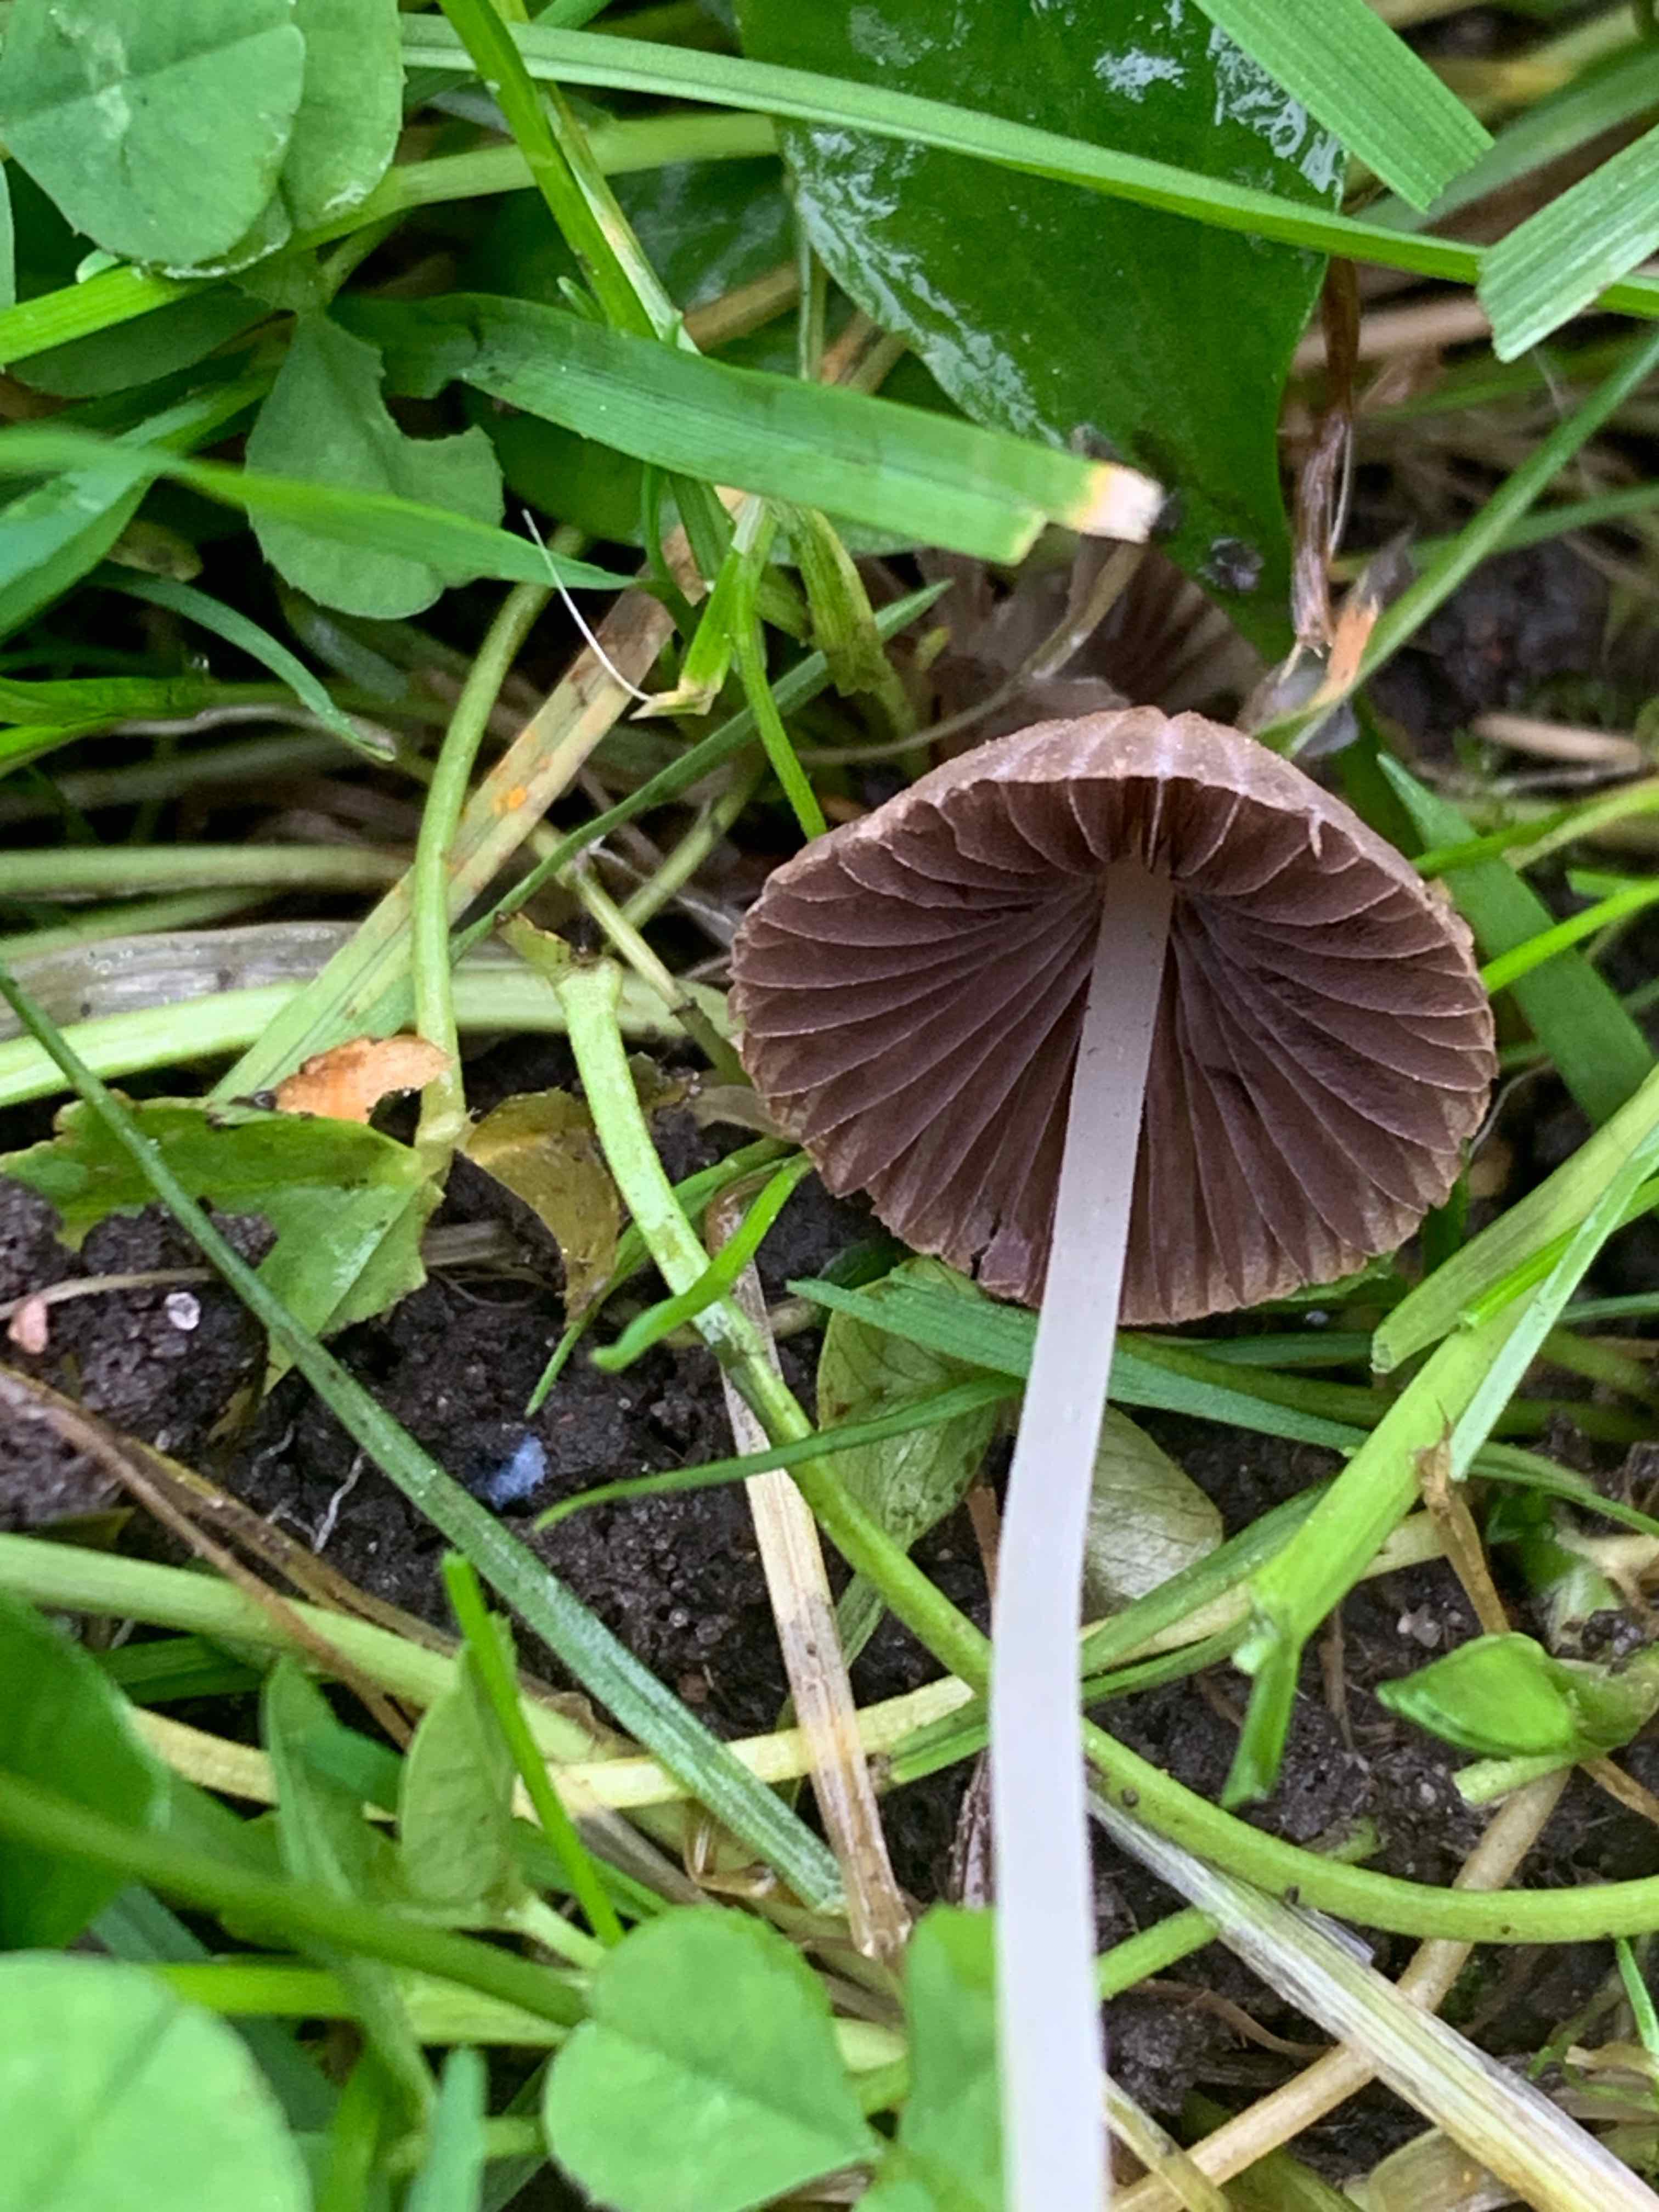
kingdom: Fungi
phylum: Basidiomycota
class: Agaricomycetes
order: Agaricales
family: Psathyrellaceae
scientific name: Psathyrellaceae
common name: mørkhatfamilien
